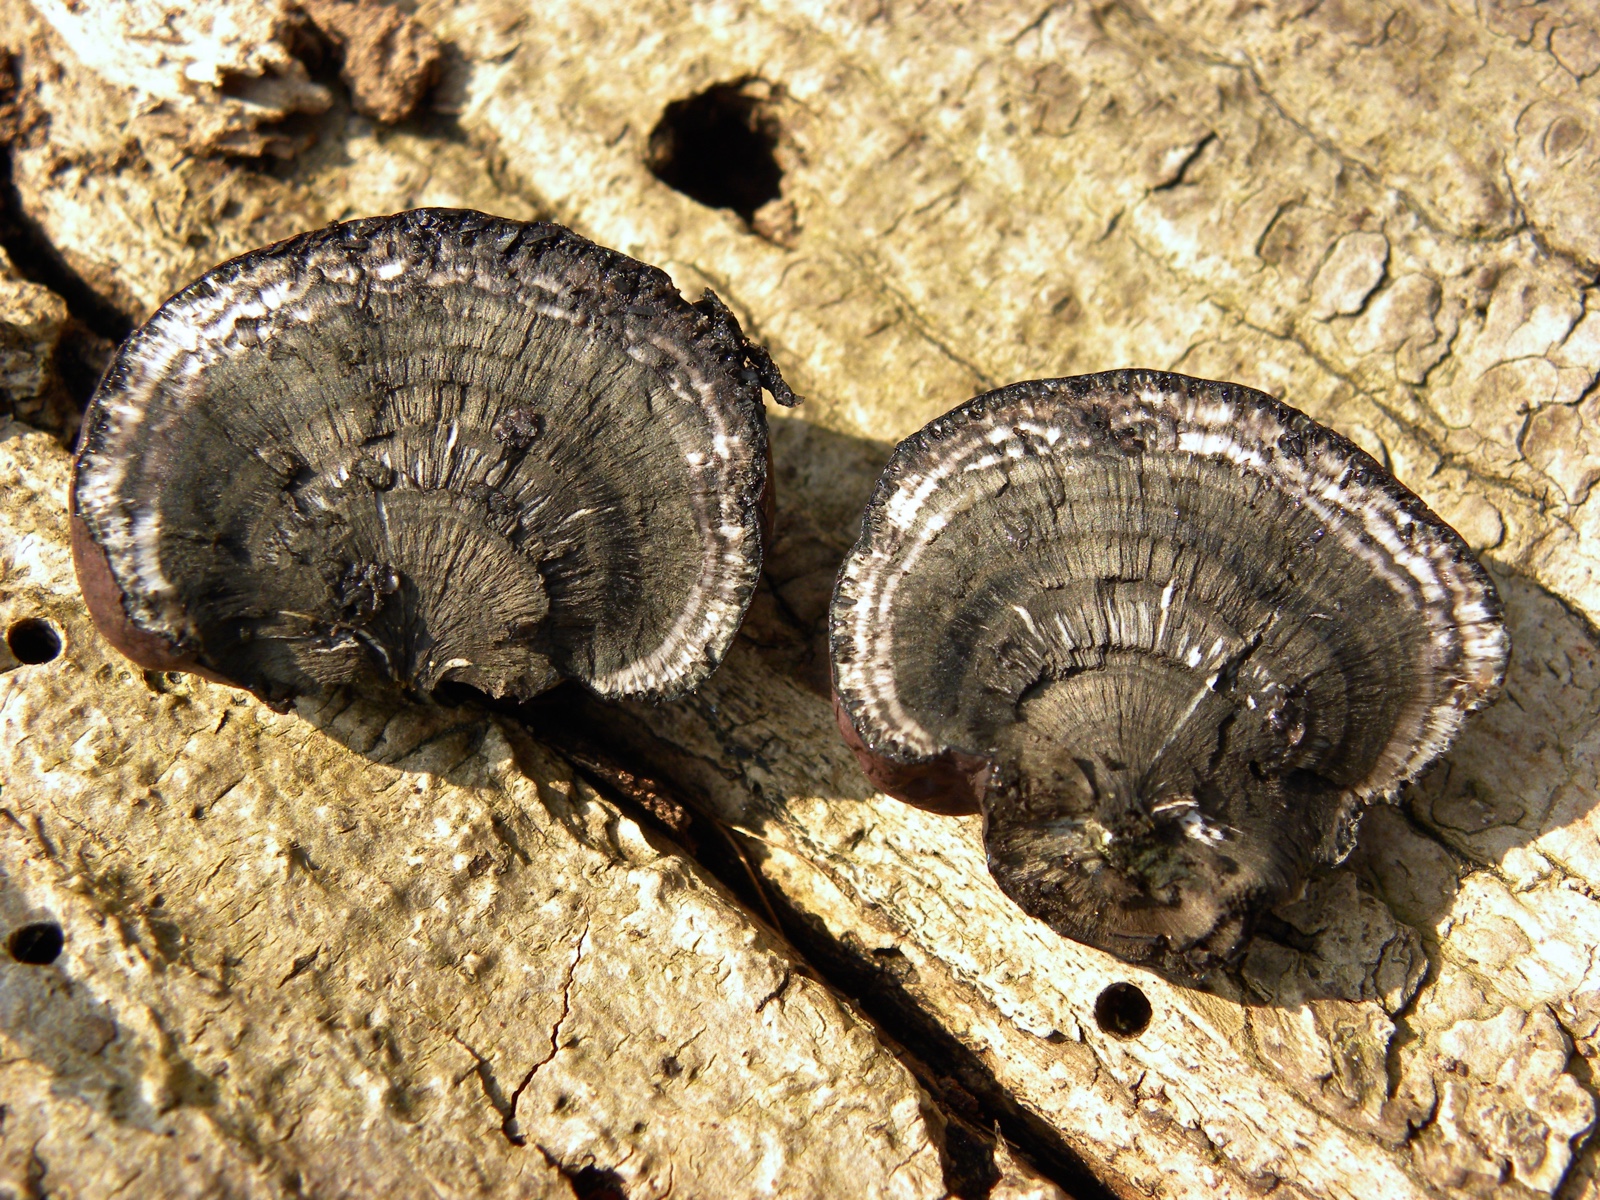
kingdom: Fungi
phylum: Ascomycota
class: Sordariomycetes
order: Xylariales
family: Hypoxylaceae
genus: Daldinia
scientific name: Daldinia concentrica
